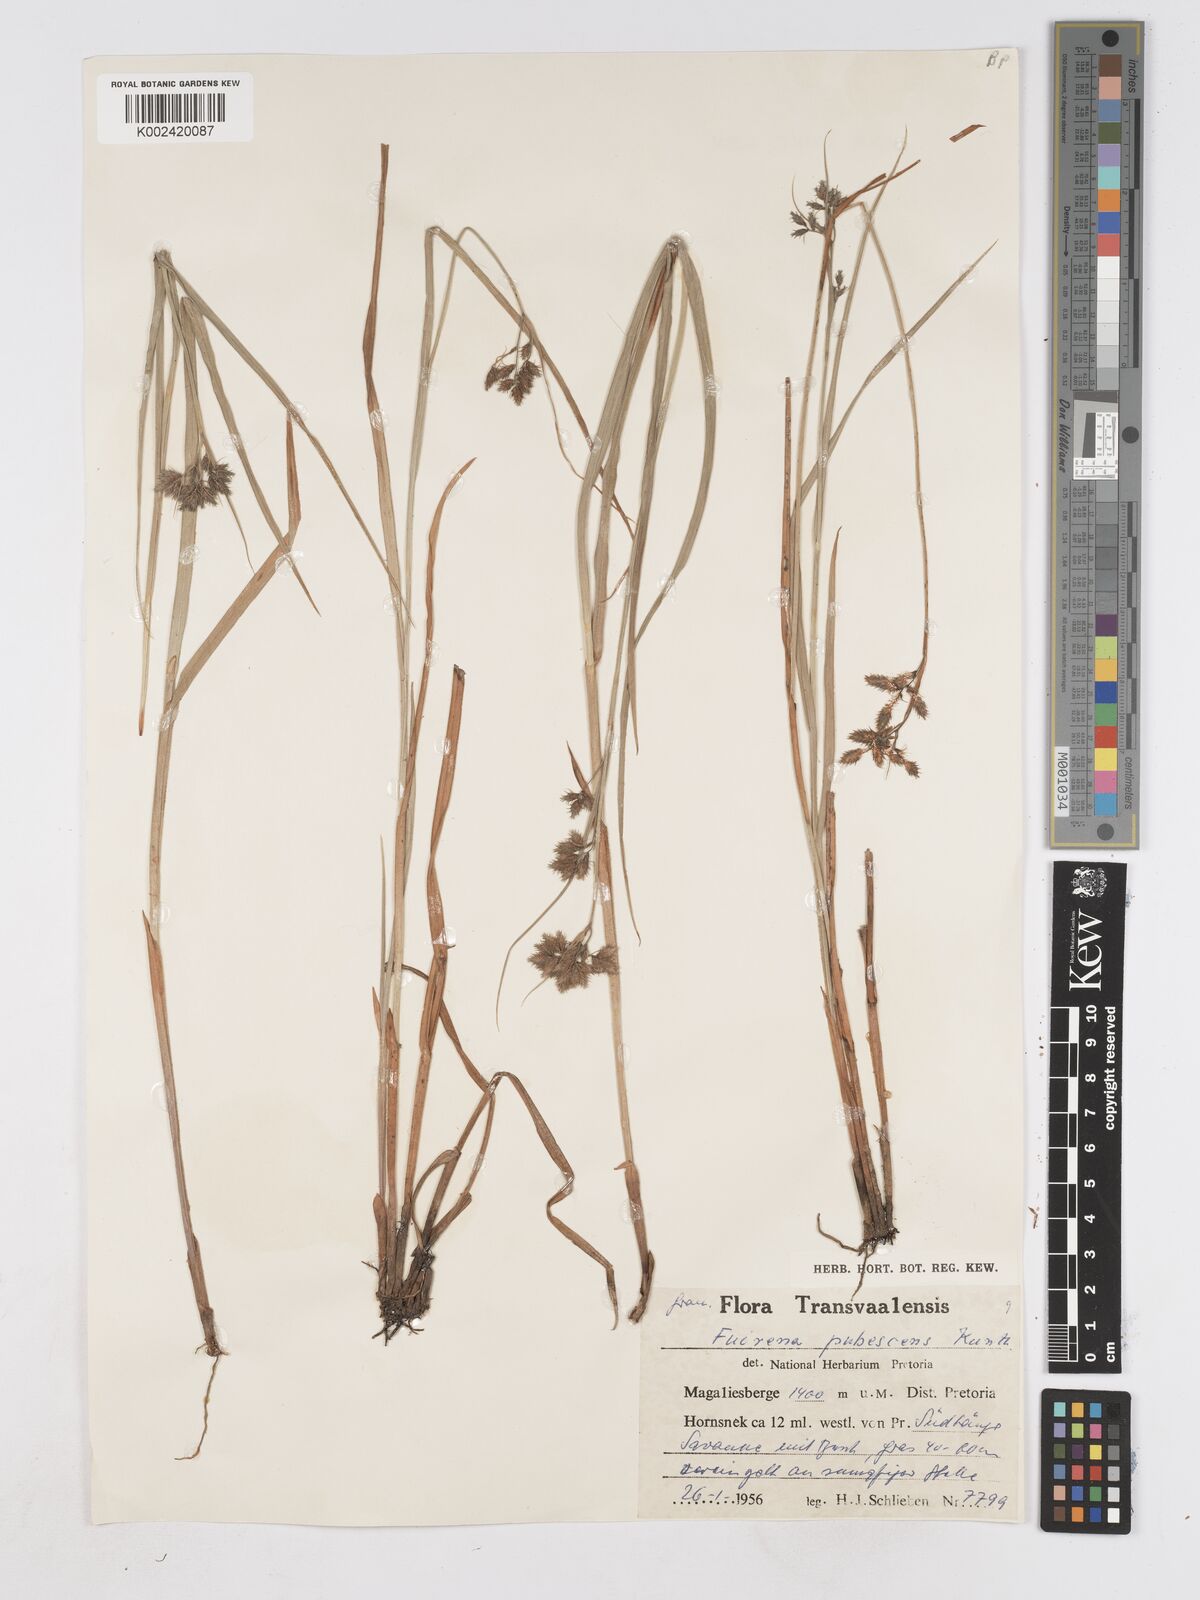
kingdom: Plantae
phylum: Tracheophyta
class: Liliopsida
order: Poales
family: Cyperaceae
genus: Fuirena
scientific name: Fuirena pubescens
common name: Hairy sedge
